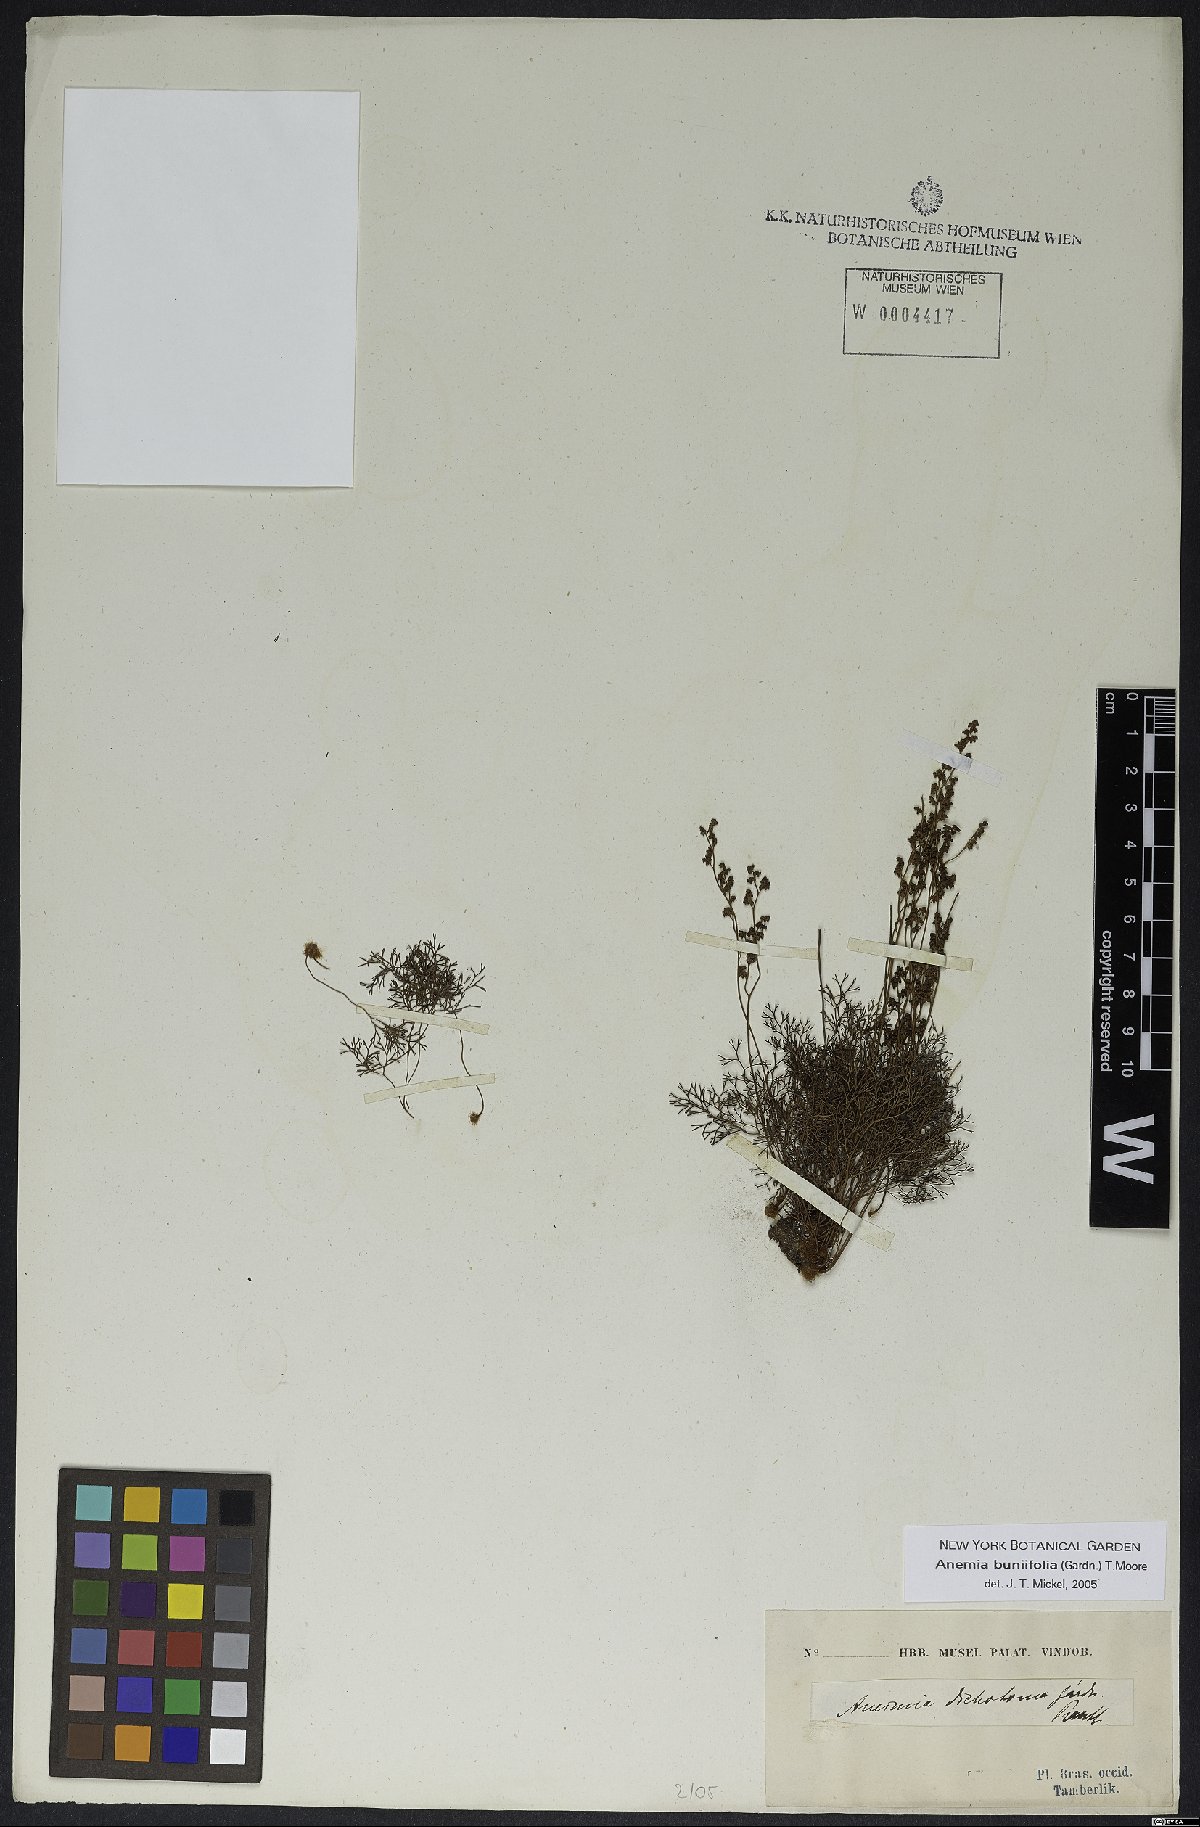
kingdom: Plantae
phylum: Tracheophyta
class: Polypodiopsida
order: Schizaeales
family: Anemiaceae
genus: Anemia
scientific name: Anemia buniifolia
